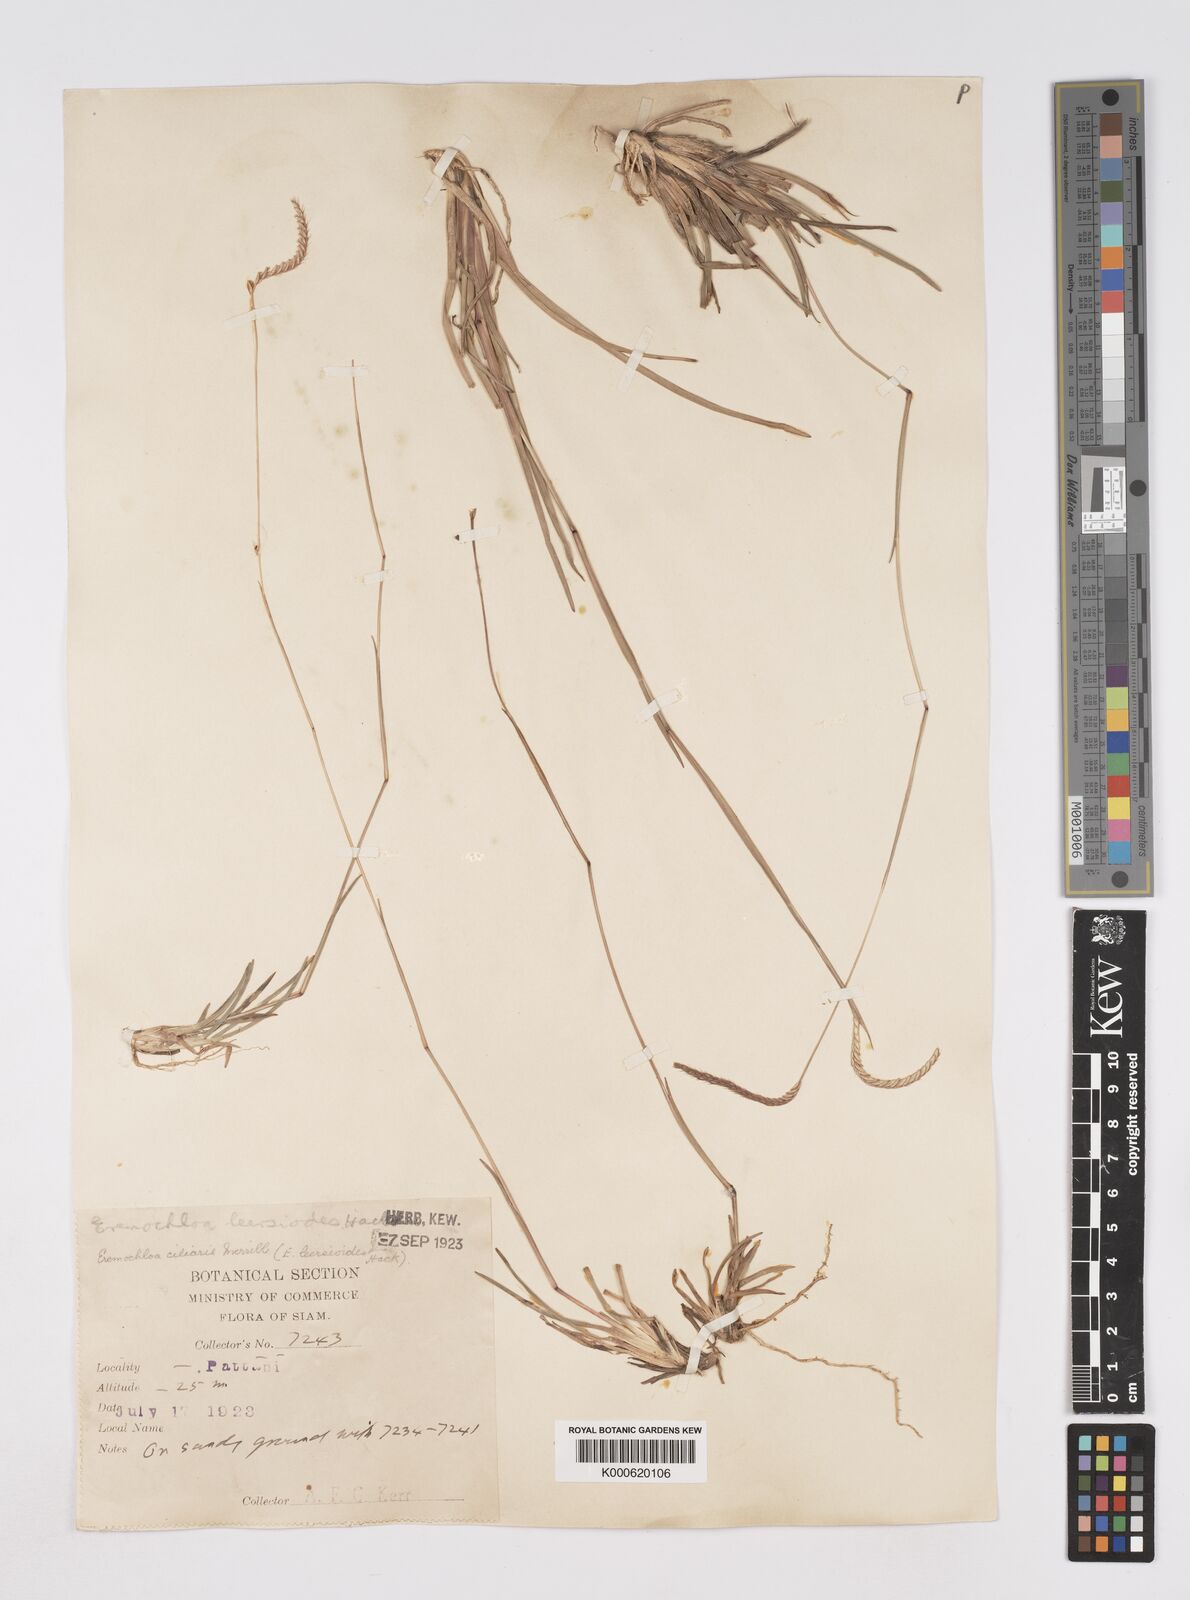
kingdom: Plantae
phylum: Tracheophyta
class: Liliopsida
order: Poales
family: Poaceae
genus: Eremochloa
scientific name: Eremochloa ciliaris
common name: Fringed centipede grass
